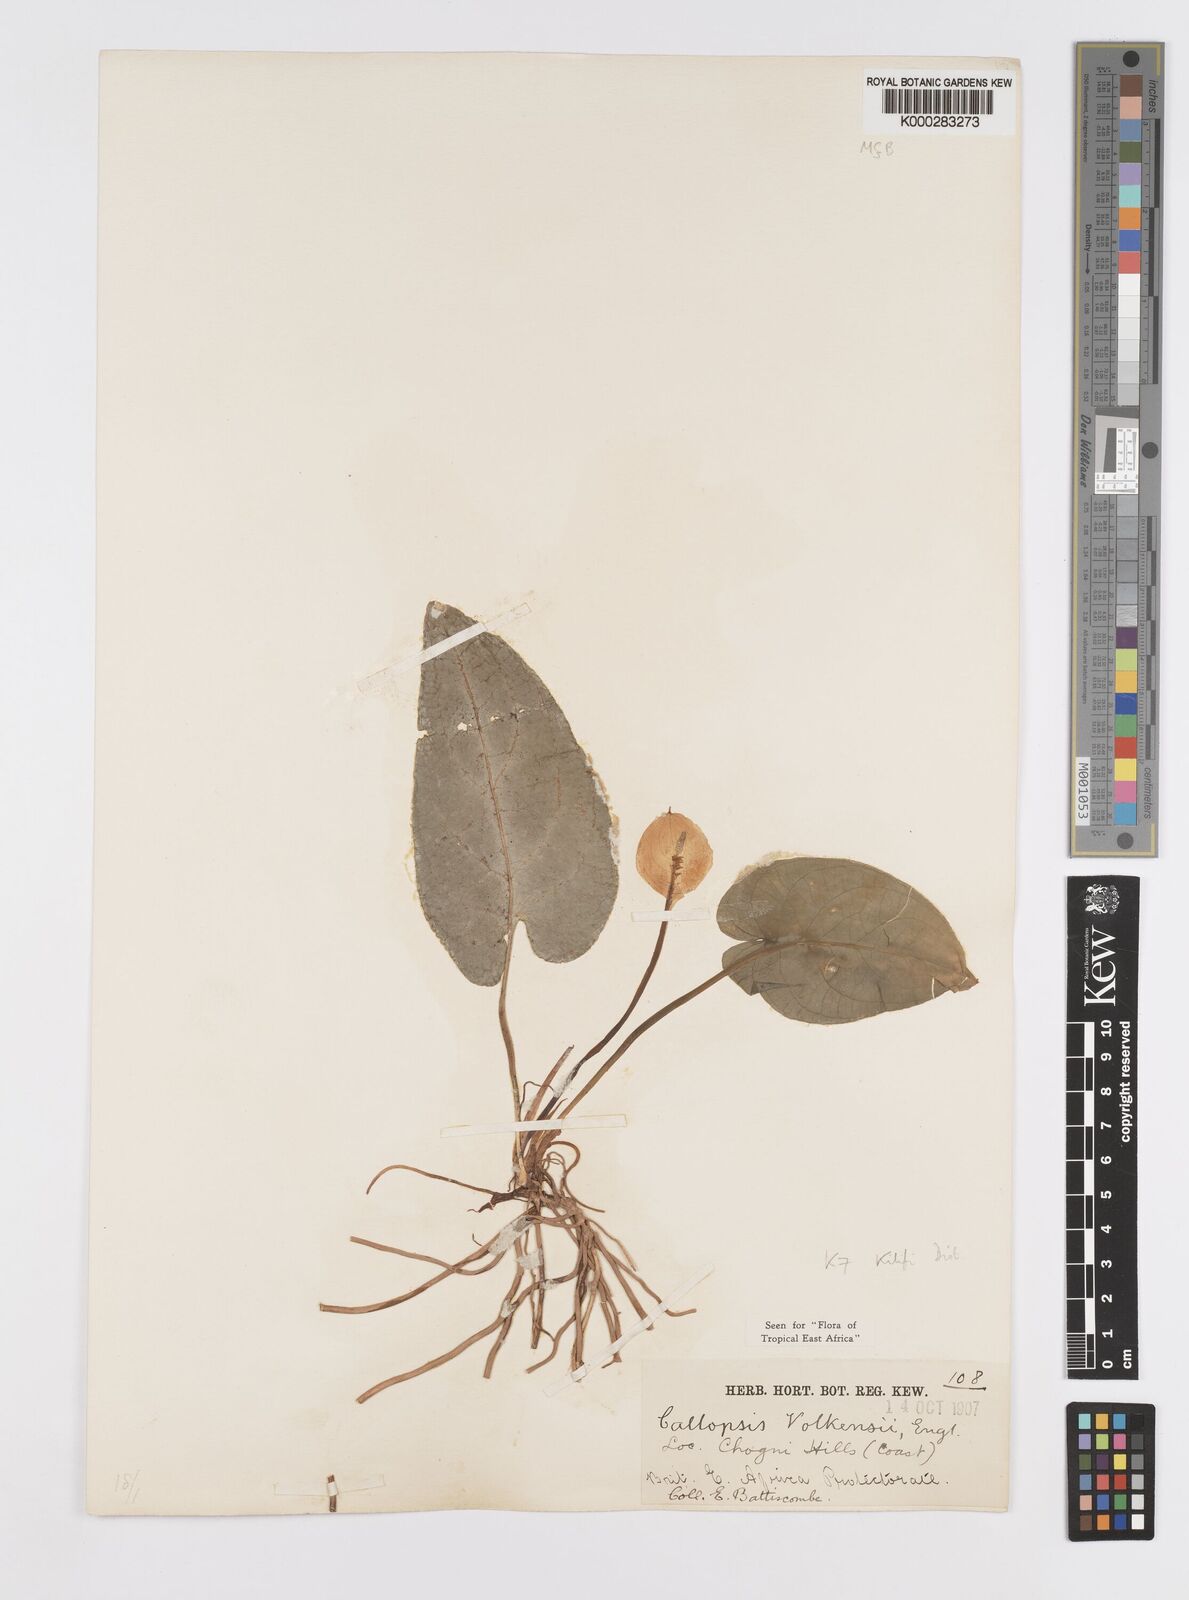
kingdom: Plantae
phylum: Tracheophyta
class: Liliopsida
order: Alismatales
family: Araceae
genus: Callopsis
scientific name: Callopsis volkensii
